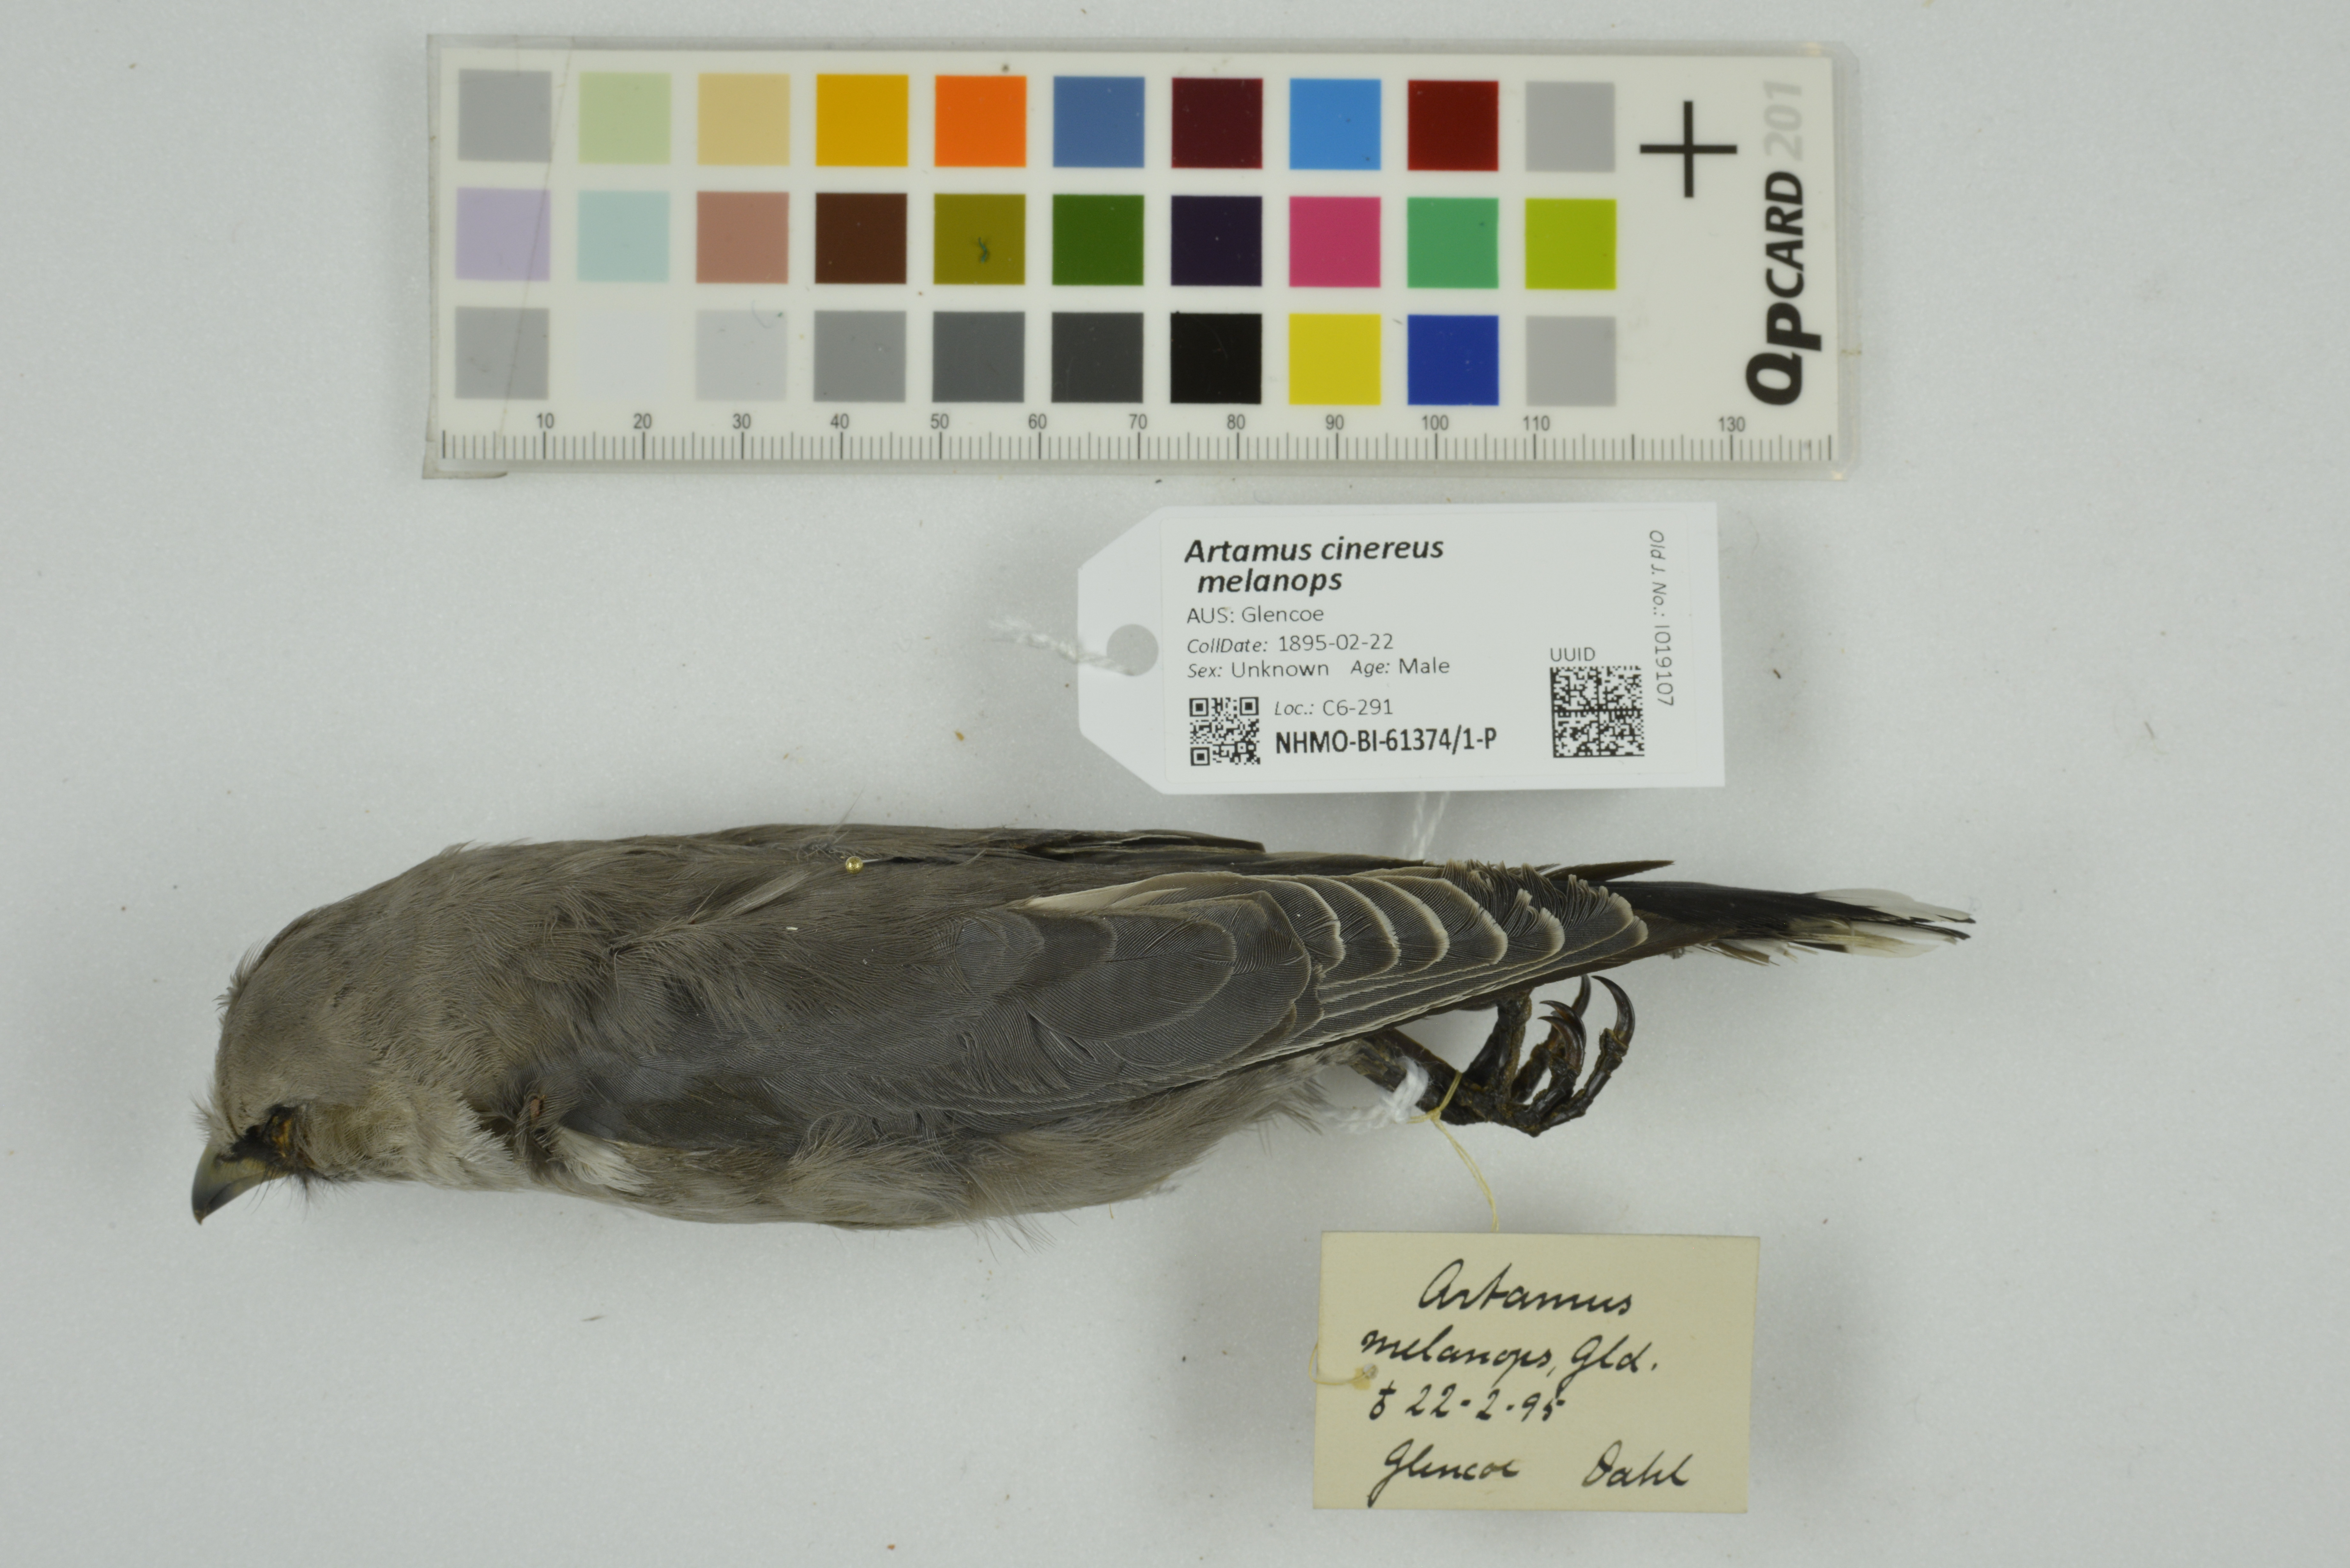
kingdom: Animalia
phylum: Chordata
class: Aves
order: Passeriformes
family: Artamidae
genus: Artamus
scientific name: Artamus cinereus
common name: Black-faced woodswallow
